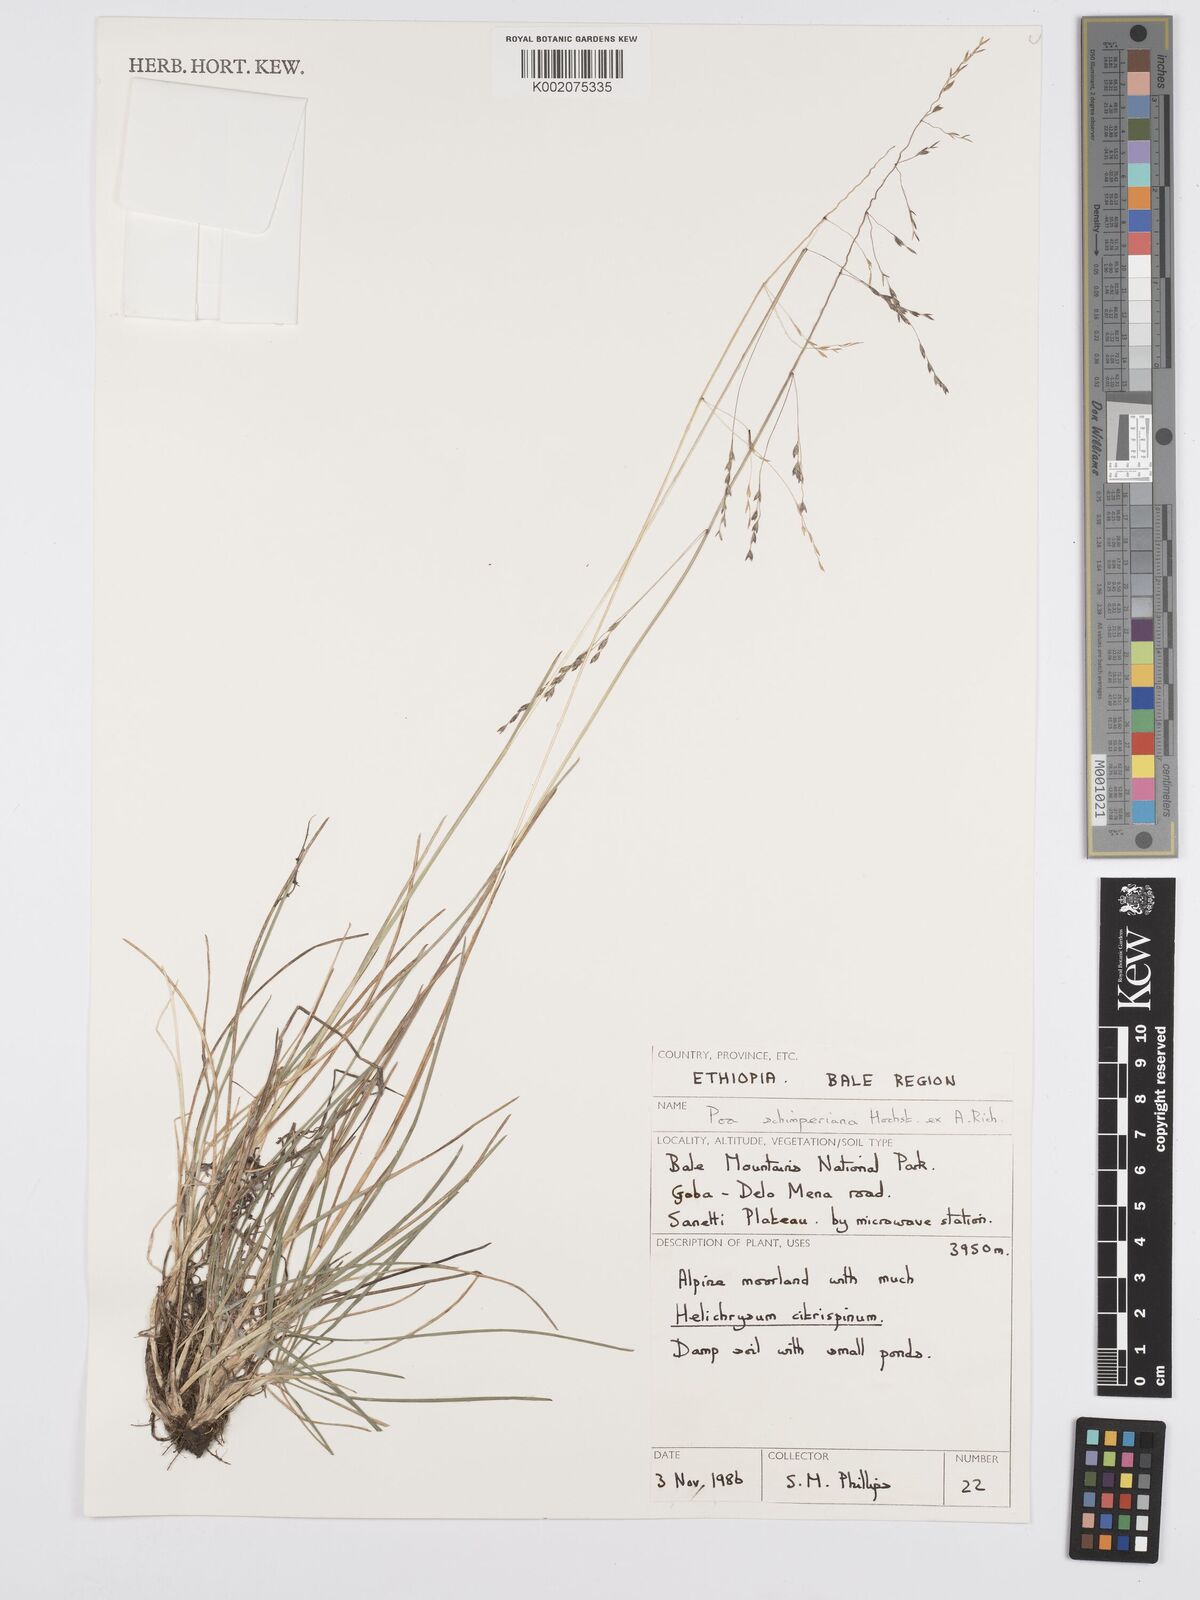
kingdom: Plantae
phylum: Tracheophyta
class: Liliopsida
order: Poales
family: Poaceae
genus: Poa
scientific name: Poa schimperiana
